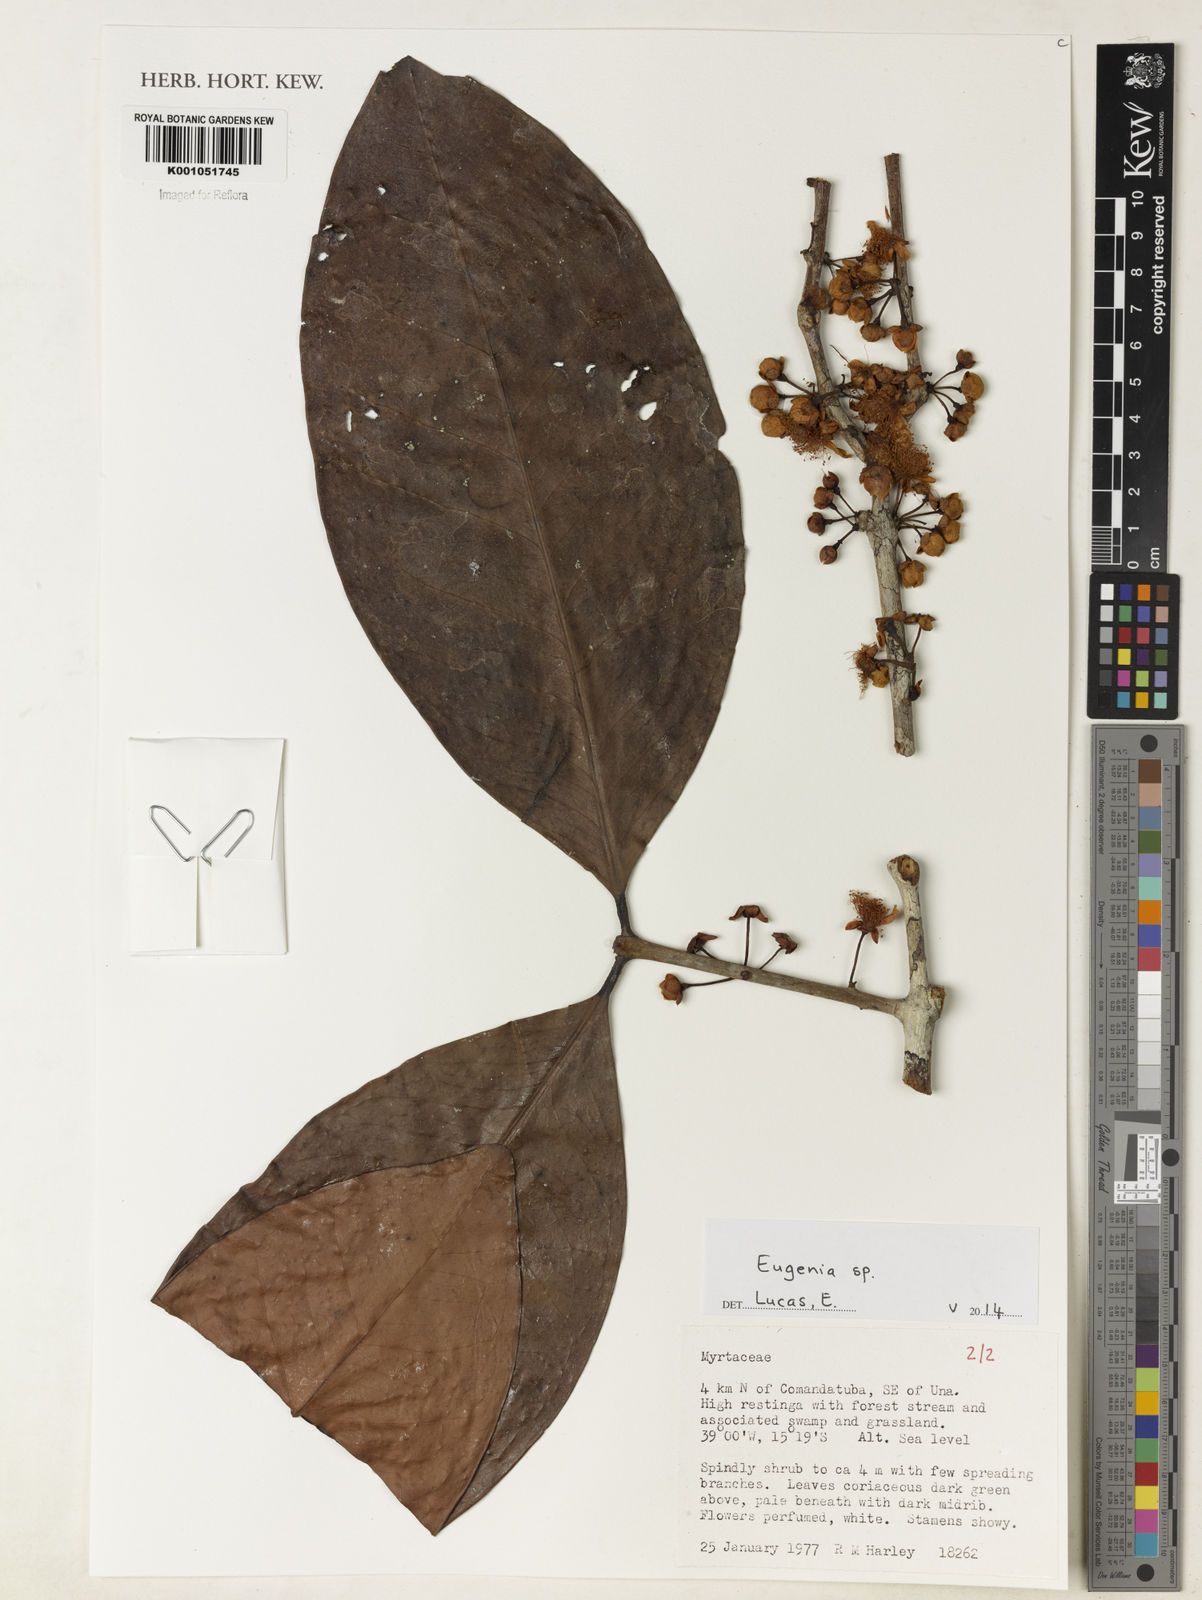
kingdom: Plantae
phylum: Tracheophyta
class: Magnoliopsida
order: Myrtales
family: Myrtaceae
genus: Eugenia
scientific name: Eugenia unana
